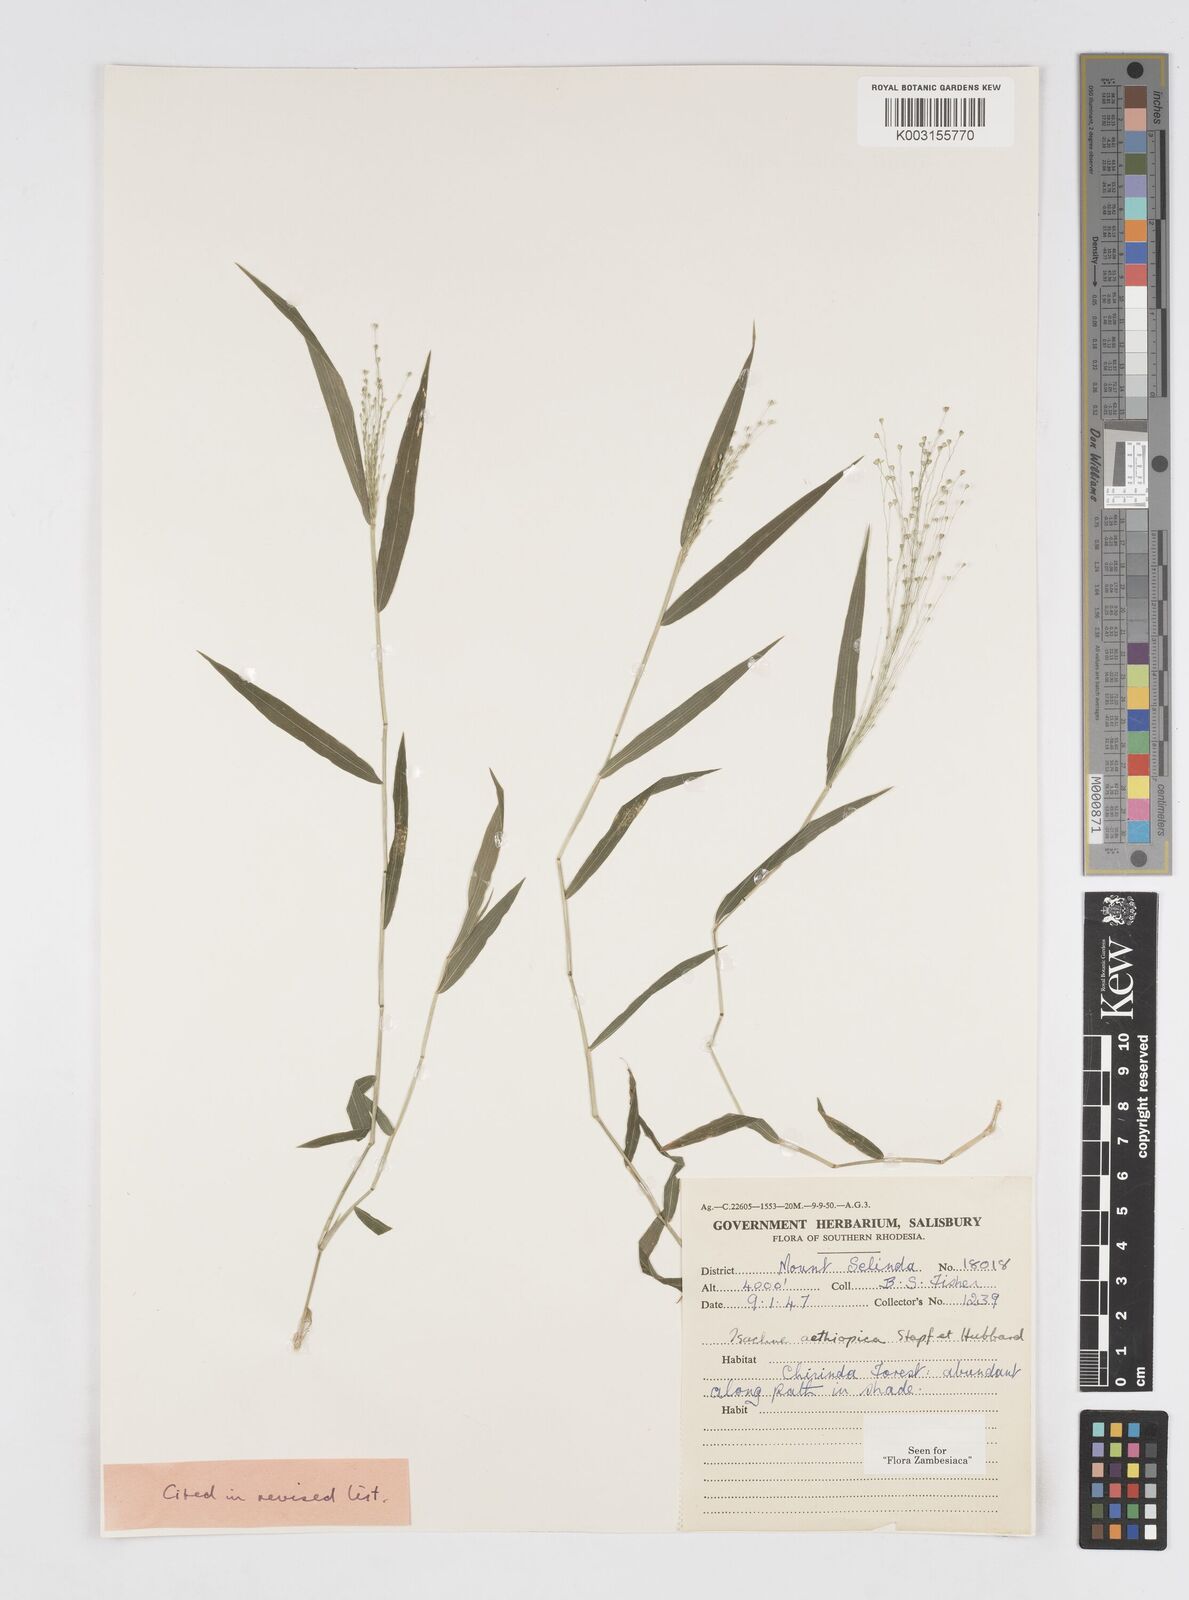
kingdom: Plantae
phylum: Tracheophyta
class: Liliopsida
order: Poales
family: Poaceae
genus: Isachne
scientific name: Isachne mauritiana
